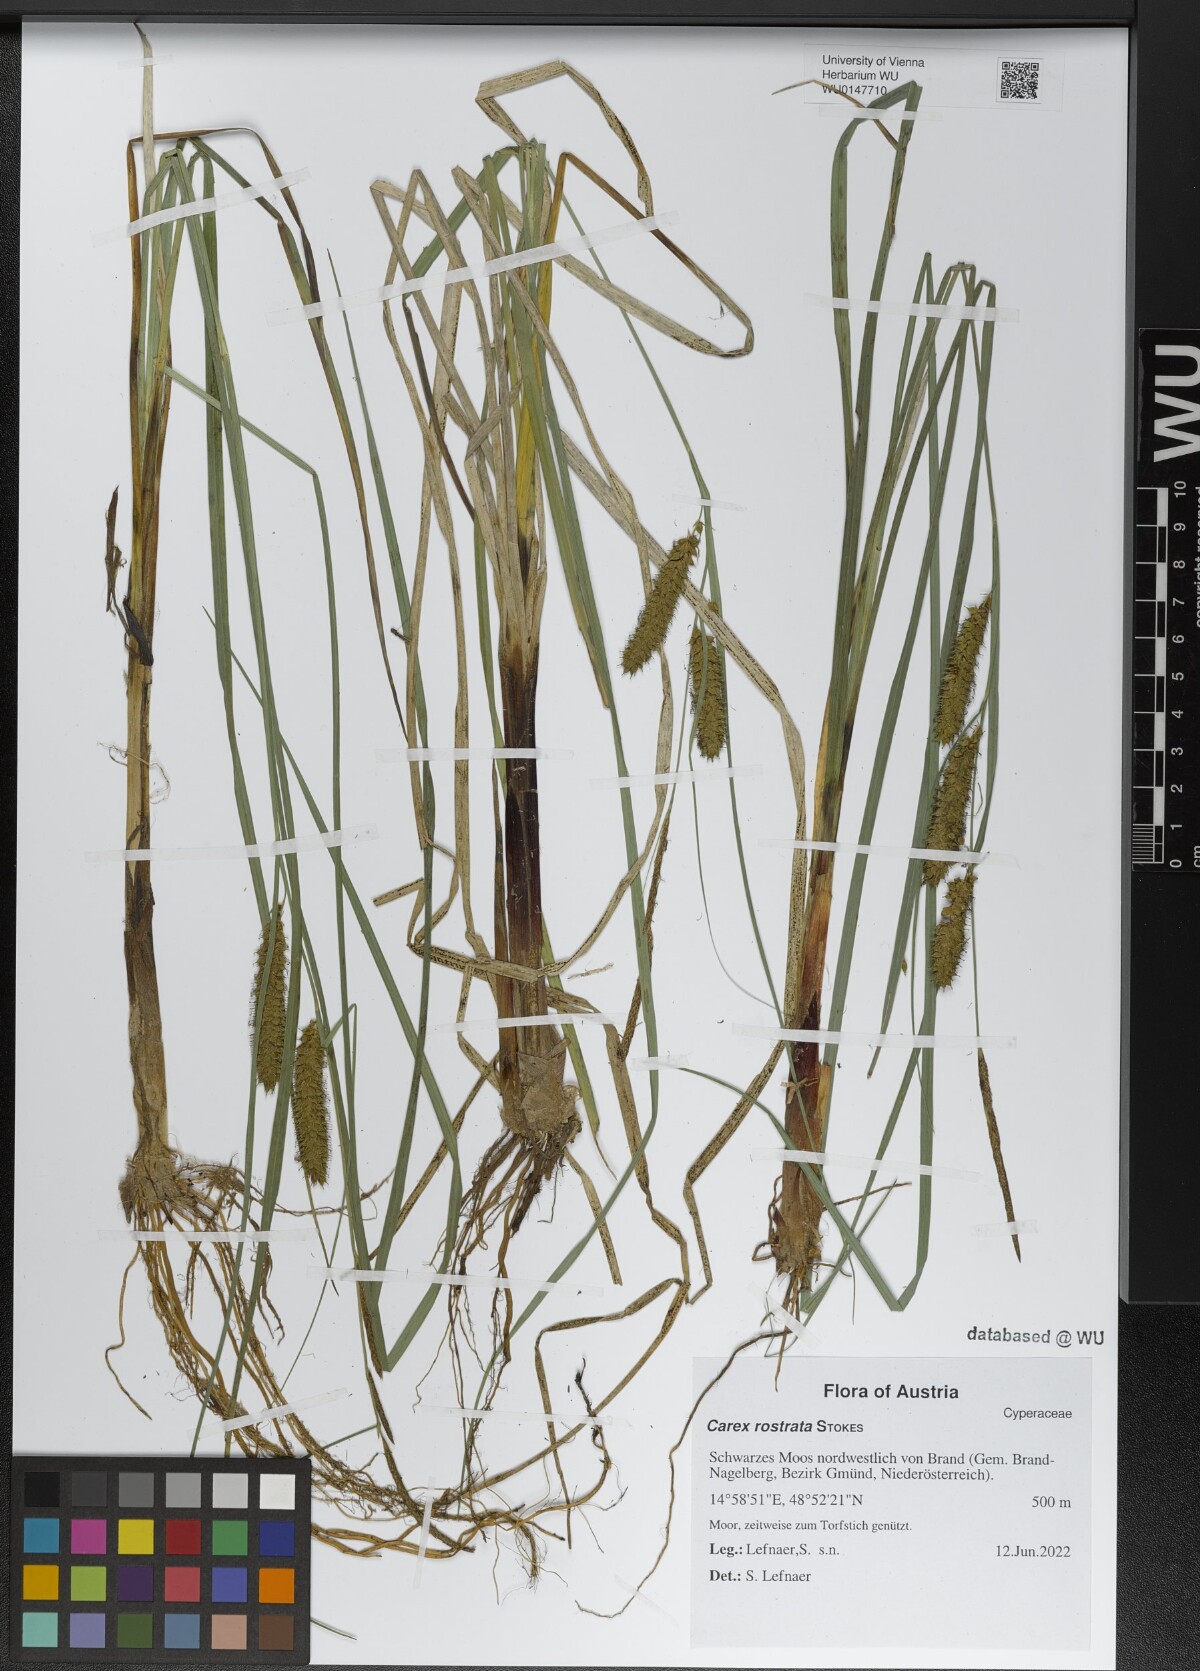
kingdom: Plantae
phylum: Tracheophyta
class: Liliopsida
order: Poales
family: Cyperaceae
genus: Carex
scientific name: Carex rostrata
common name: Bottle sedge
